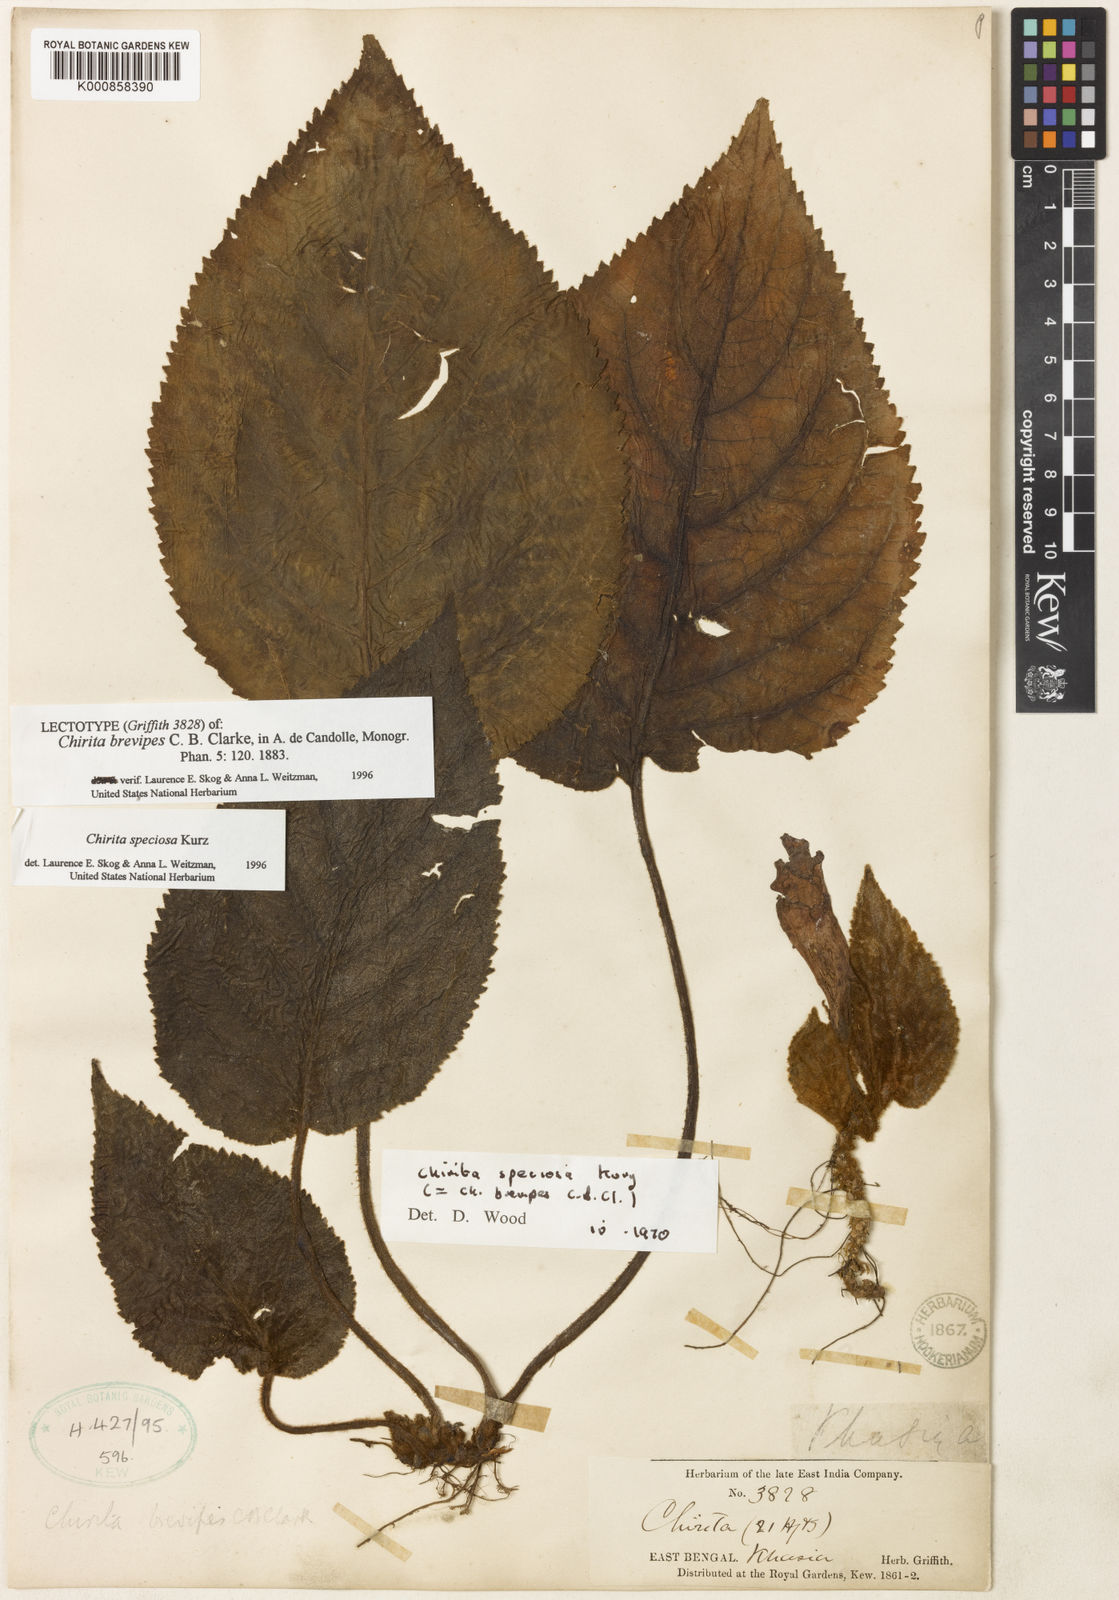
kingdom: Plantae
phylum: Tracheophyta
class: Magnoliopsida
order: Lamiales
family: Gesneriaceae
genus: Henckelia
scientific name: Henckelia speciosa
